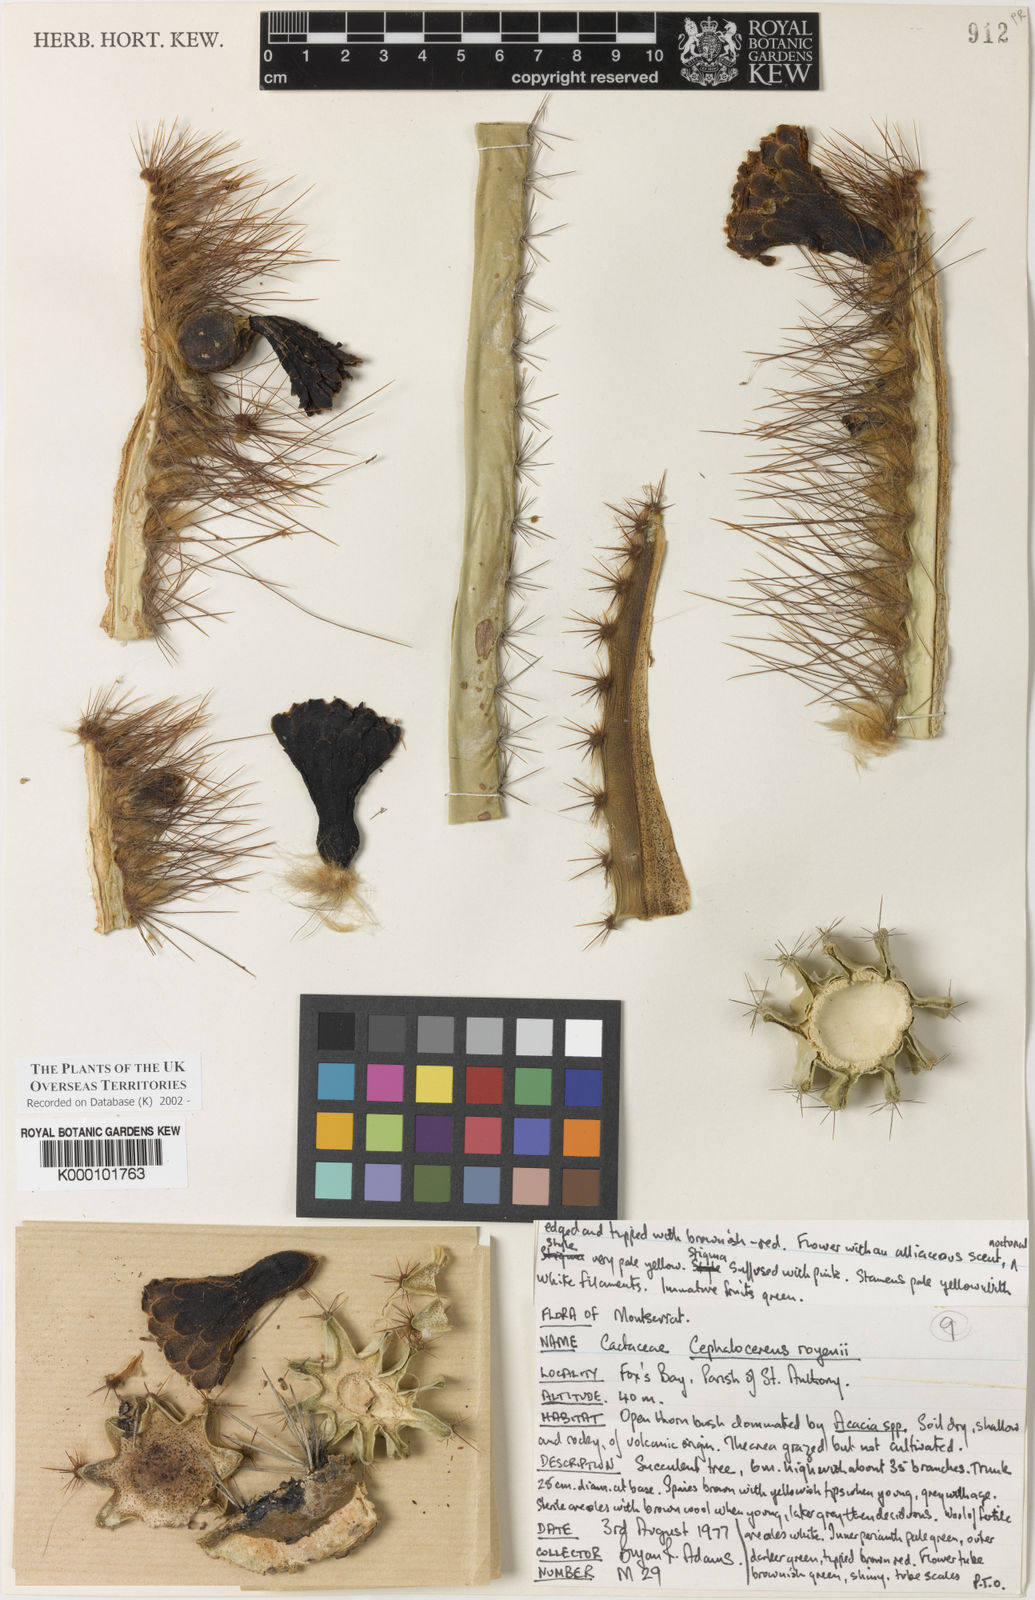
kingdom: Plantae
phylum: Tracheophyta
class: Magnoliopsida
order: Caryophyllales
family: Cactaceae
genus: Pilosocereus
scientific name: Pilosocereus polygonus
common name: Key tree cactus
